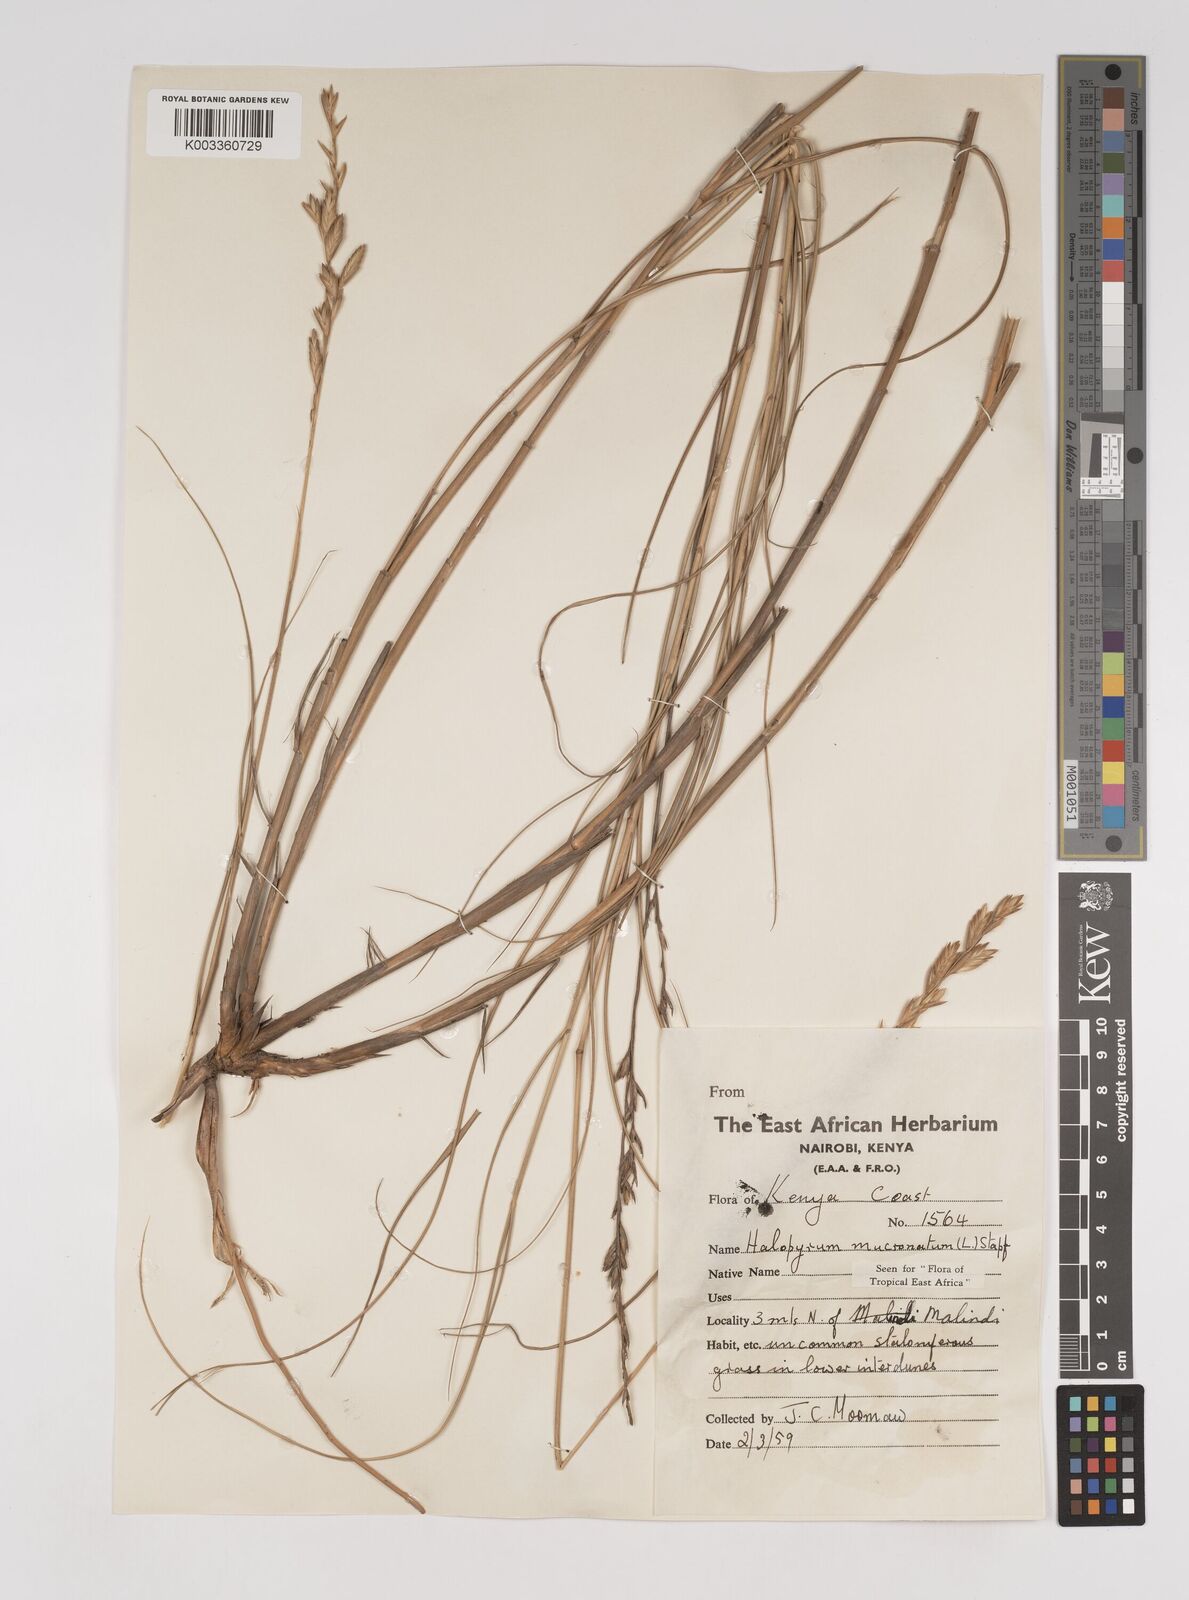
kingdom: Plantae
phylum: Tracheophyta
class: Liliopsida
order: Poales
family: Poaceae
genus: Halopyrum
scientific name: Halopyrum mucronatum
